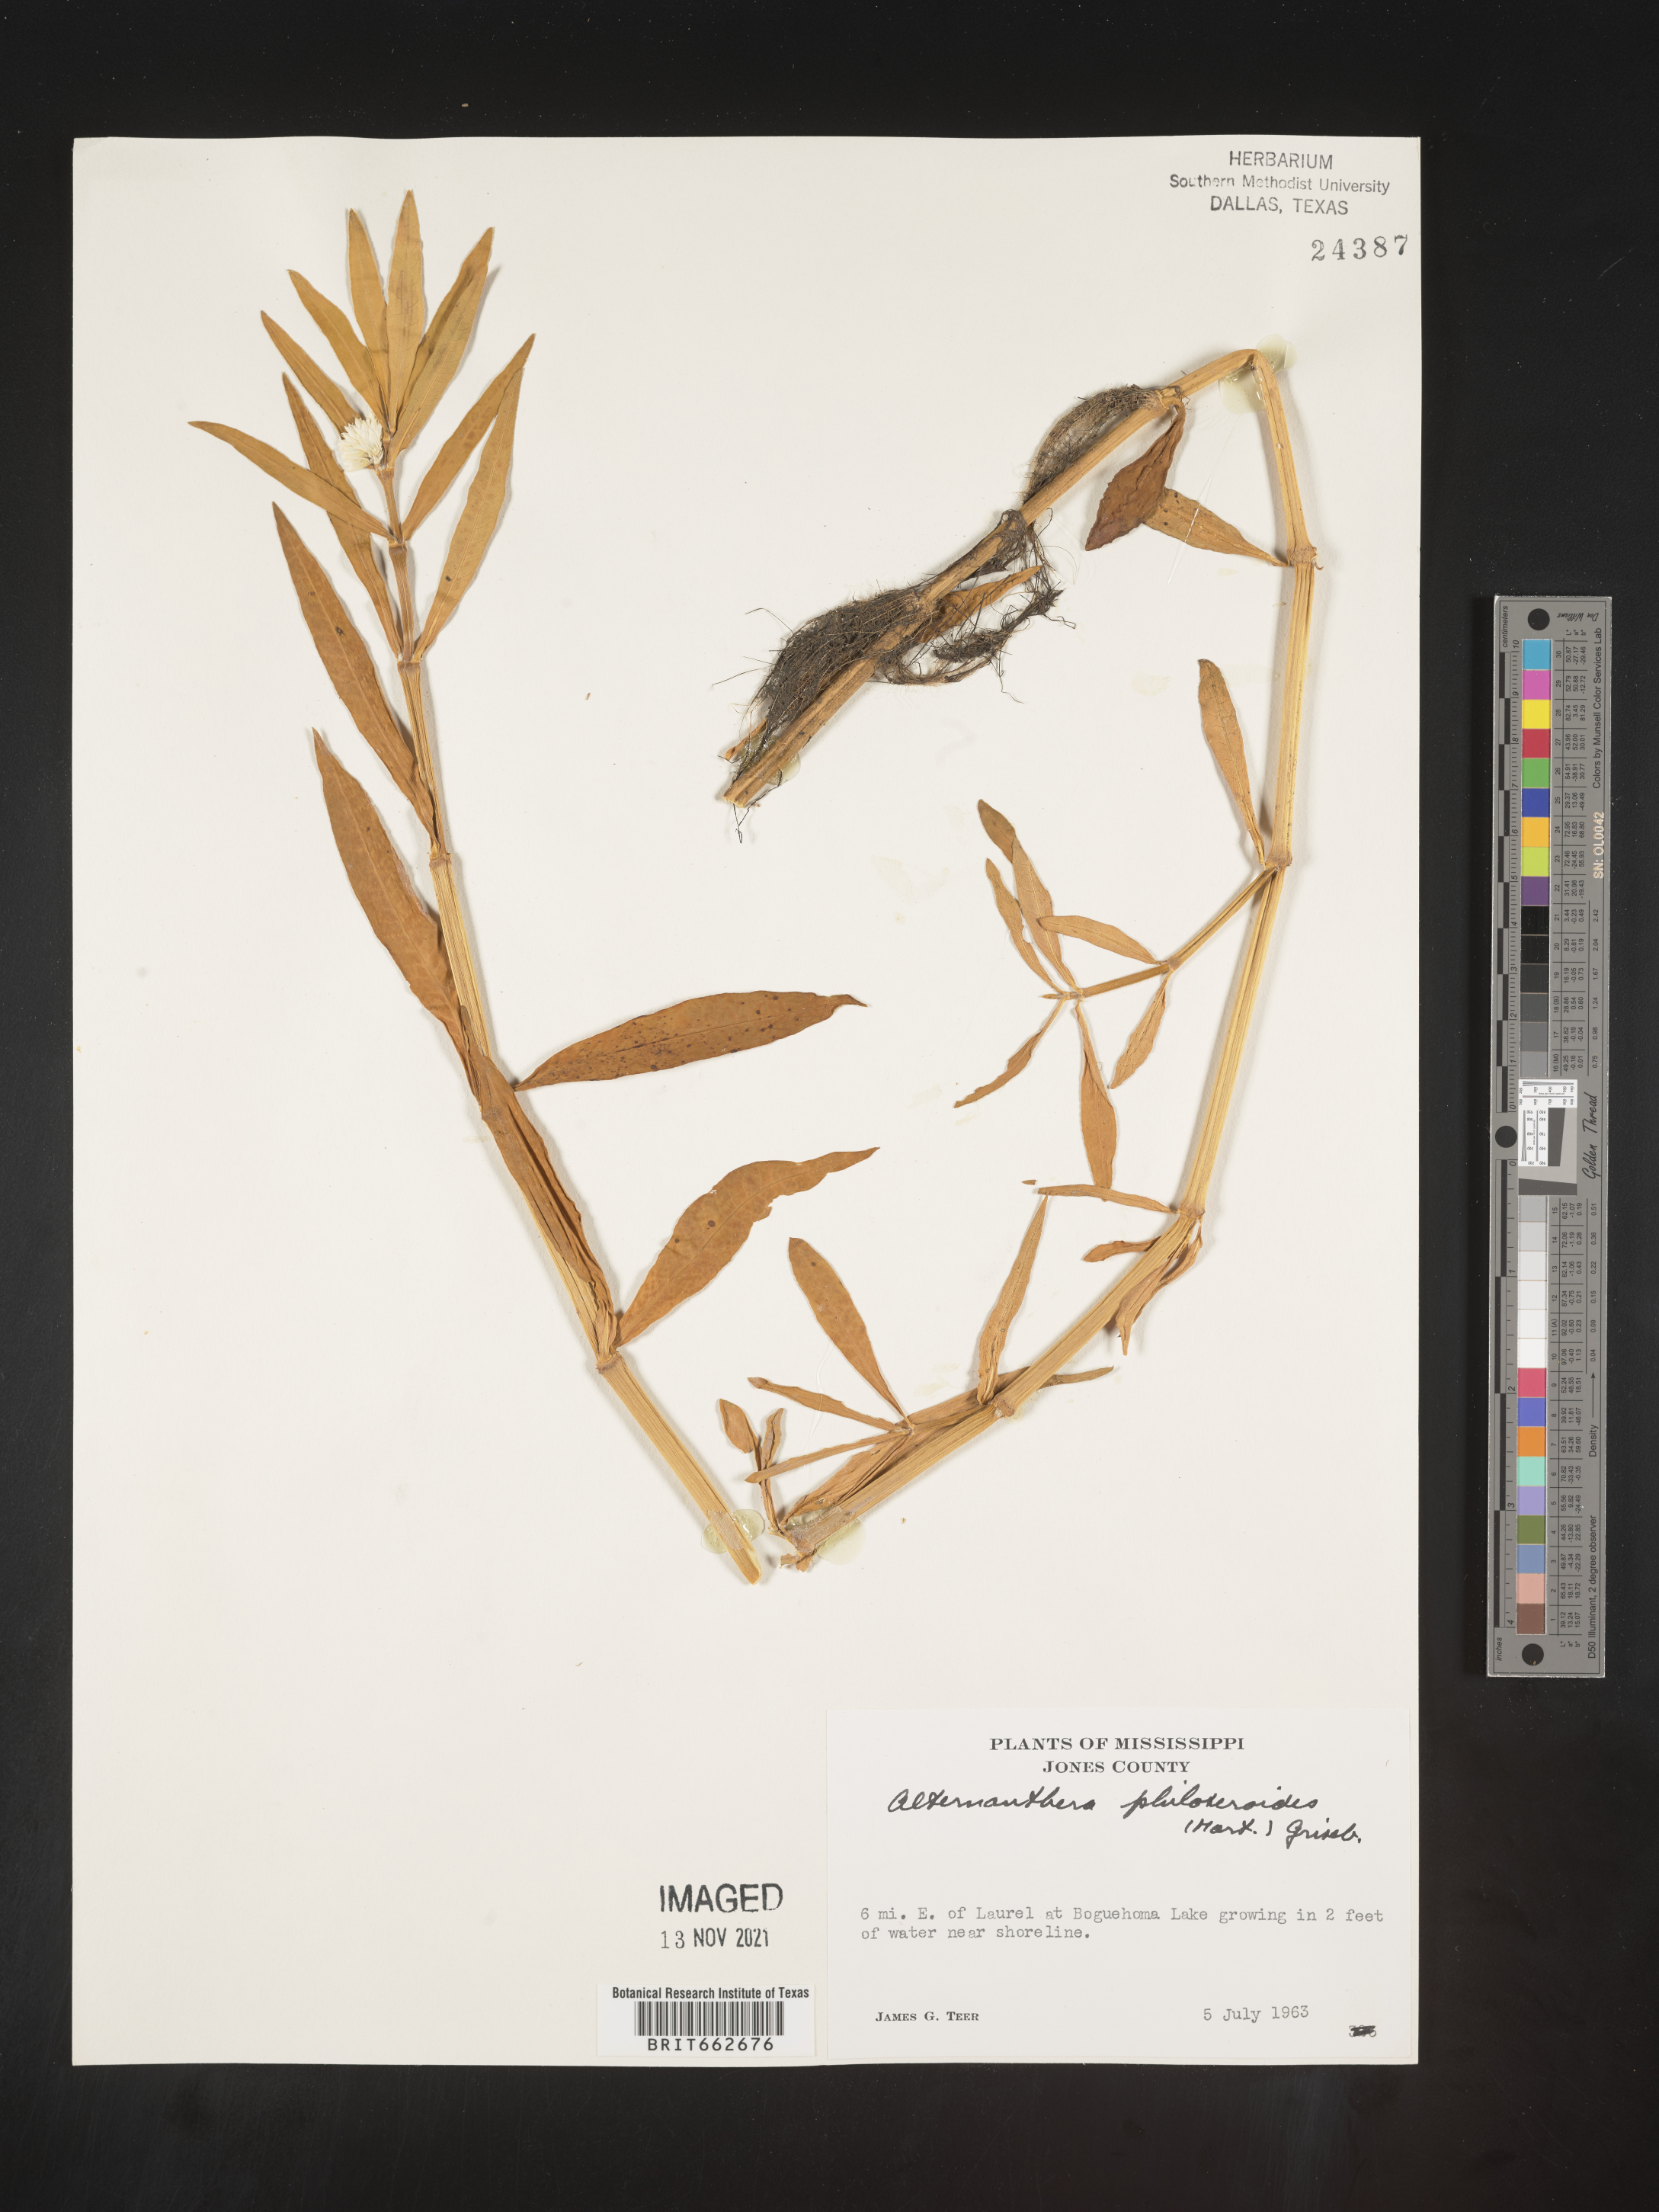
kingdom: Plantae
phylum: Tracheophyta
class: Magnoliopsida
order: Caryophyllales
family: Amaranthaceae
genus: Alternanthera
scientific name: Alternanthera philoxeroides
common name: Alligatorweed
